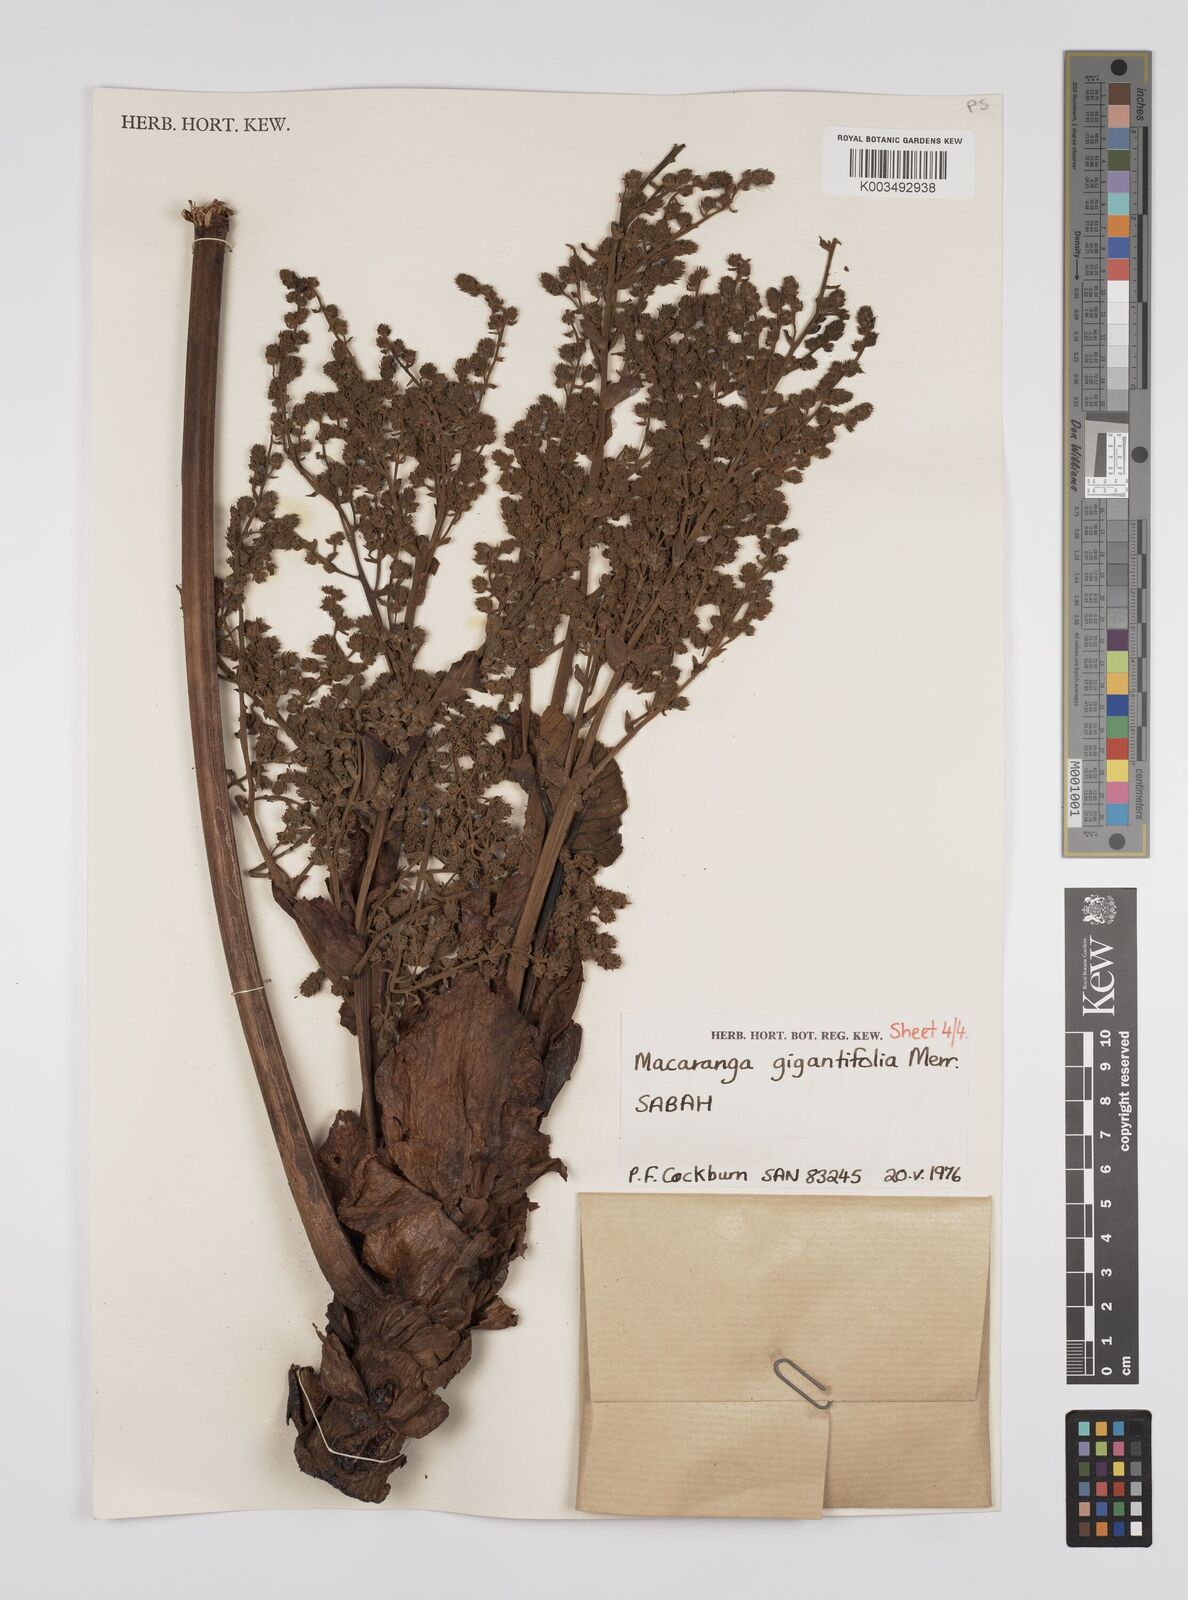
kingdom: Plantae
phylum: Tracheophyta
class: Magnoliopsida
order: Malpighiales
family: Euphorbiaceae
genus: Macaranga
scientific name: Macaranga gigantifolia
